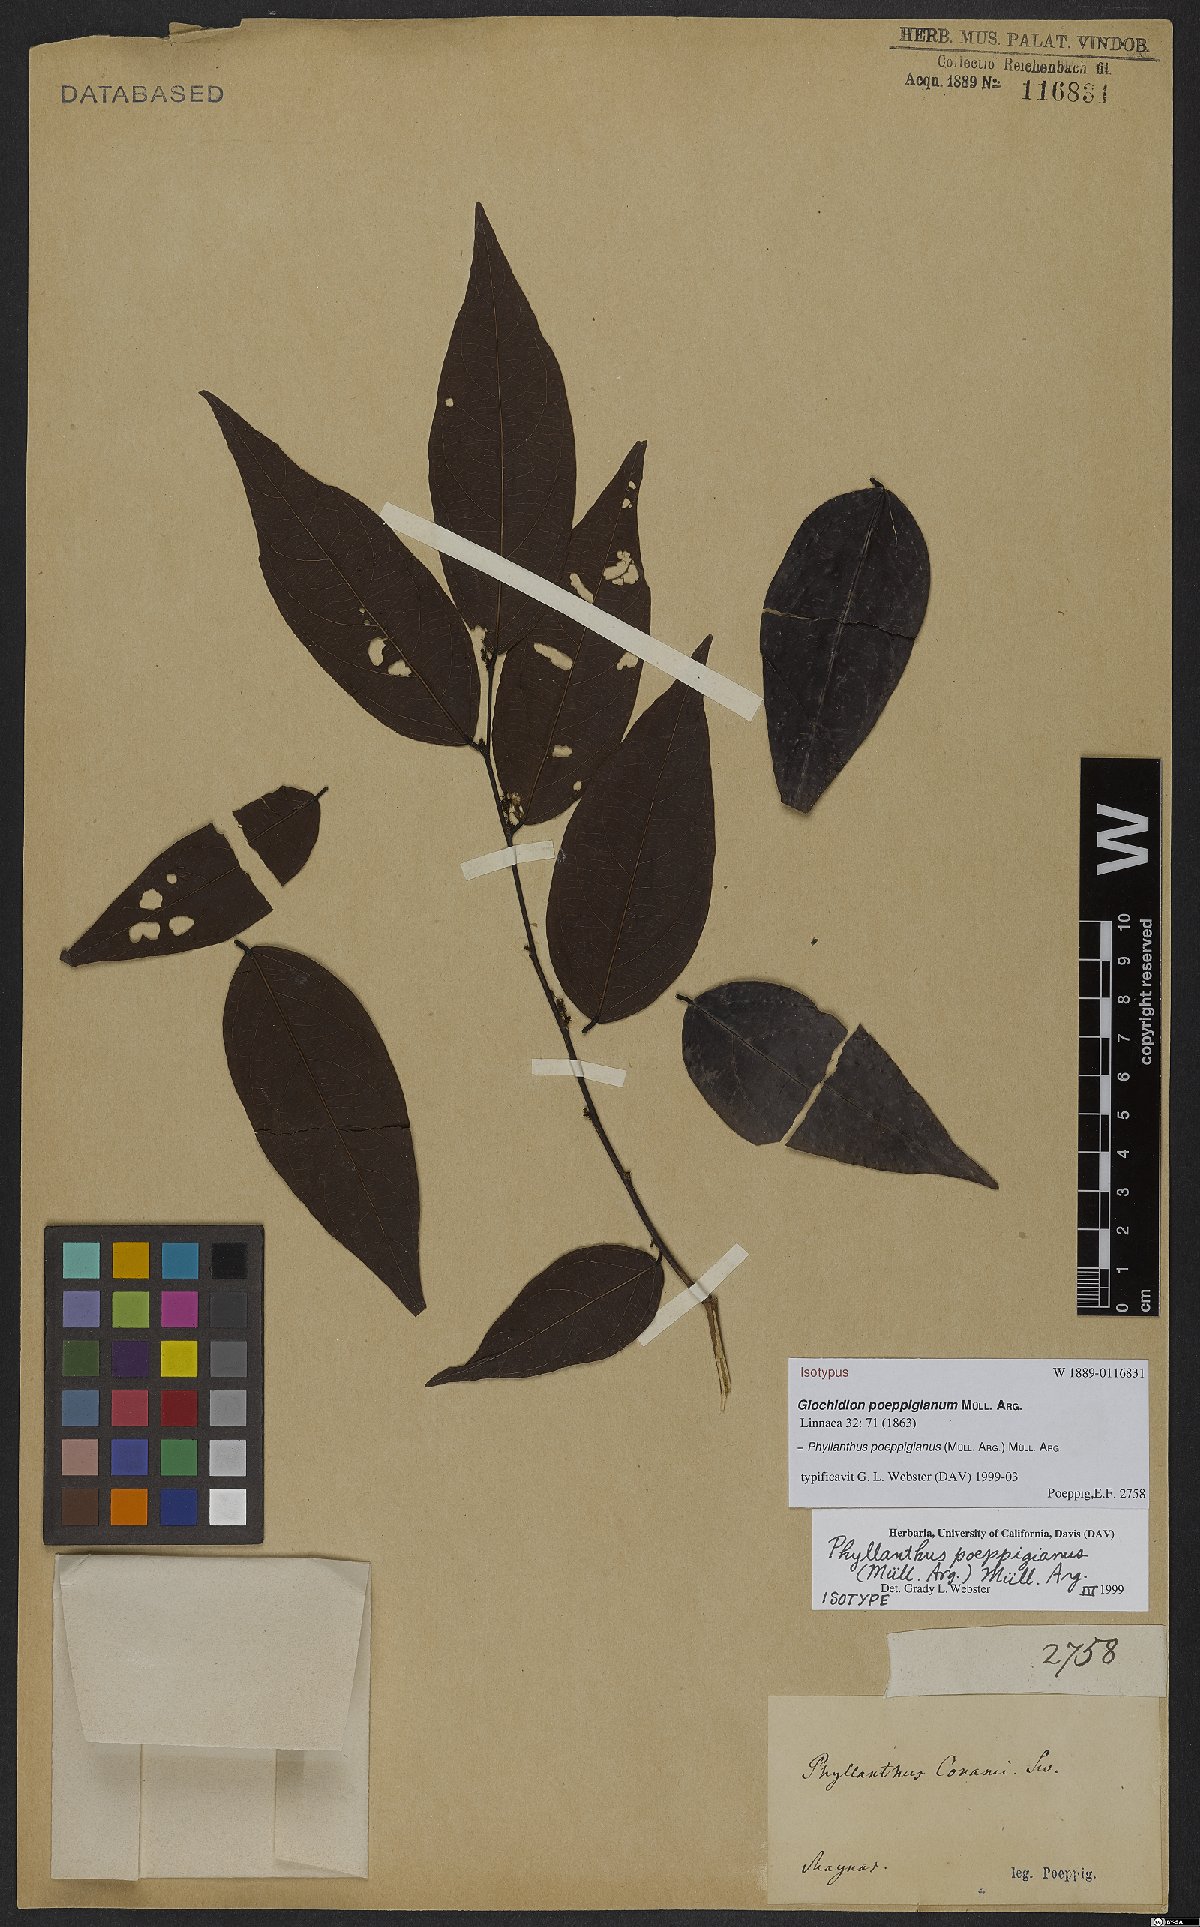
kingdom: Plantae
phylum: Tracheophyta
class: Magnoliopsida
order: Malpighiales
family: Phyllanthaceae
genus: Phyllanthus
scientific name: Phyllanthus poeppigianus
